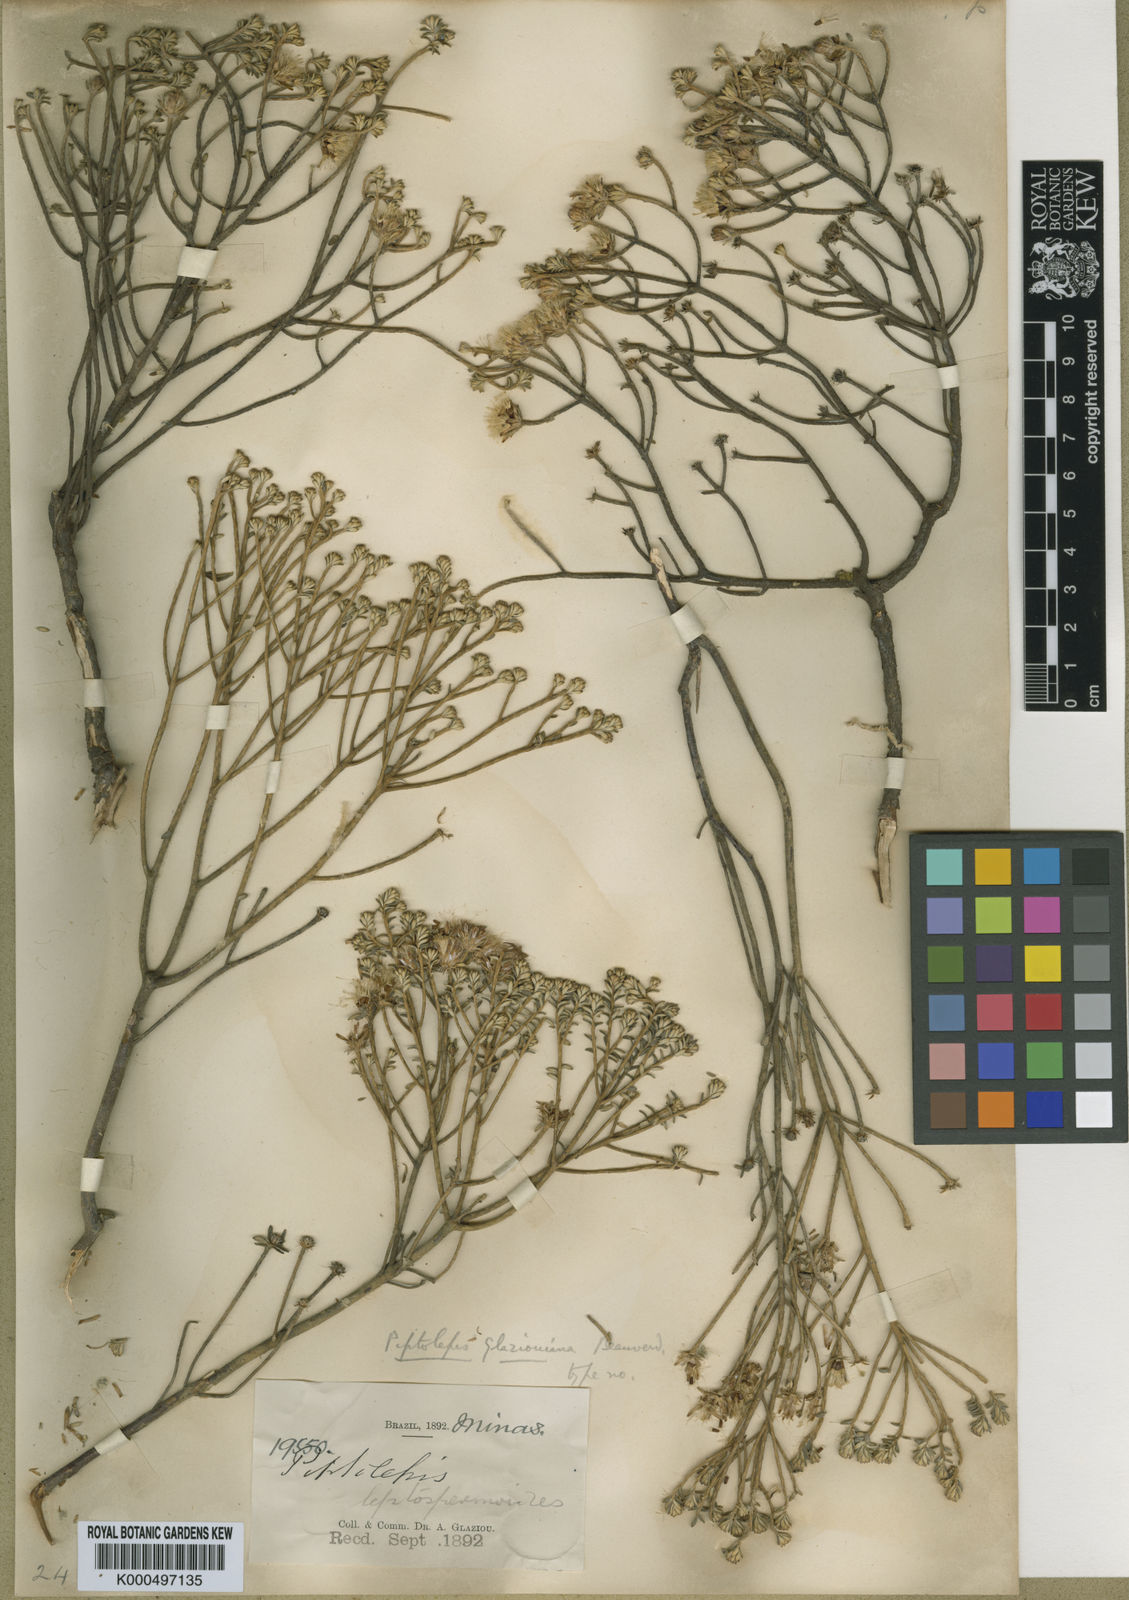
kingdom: Plantae
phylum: Tracheophyta
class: Magnoliopsida
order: Asterales
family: Asteraceae
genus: Piptolepis
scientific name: Piptolepis glaziouana
